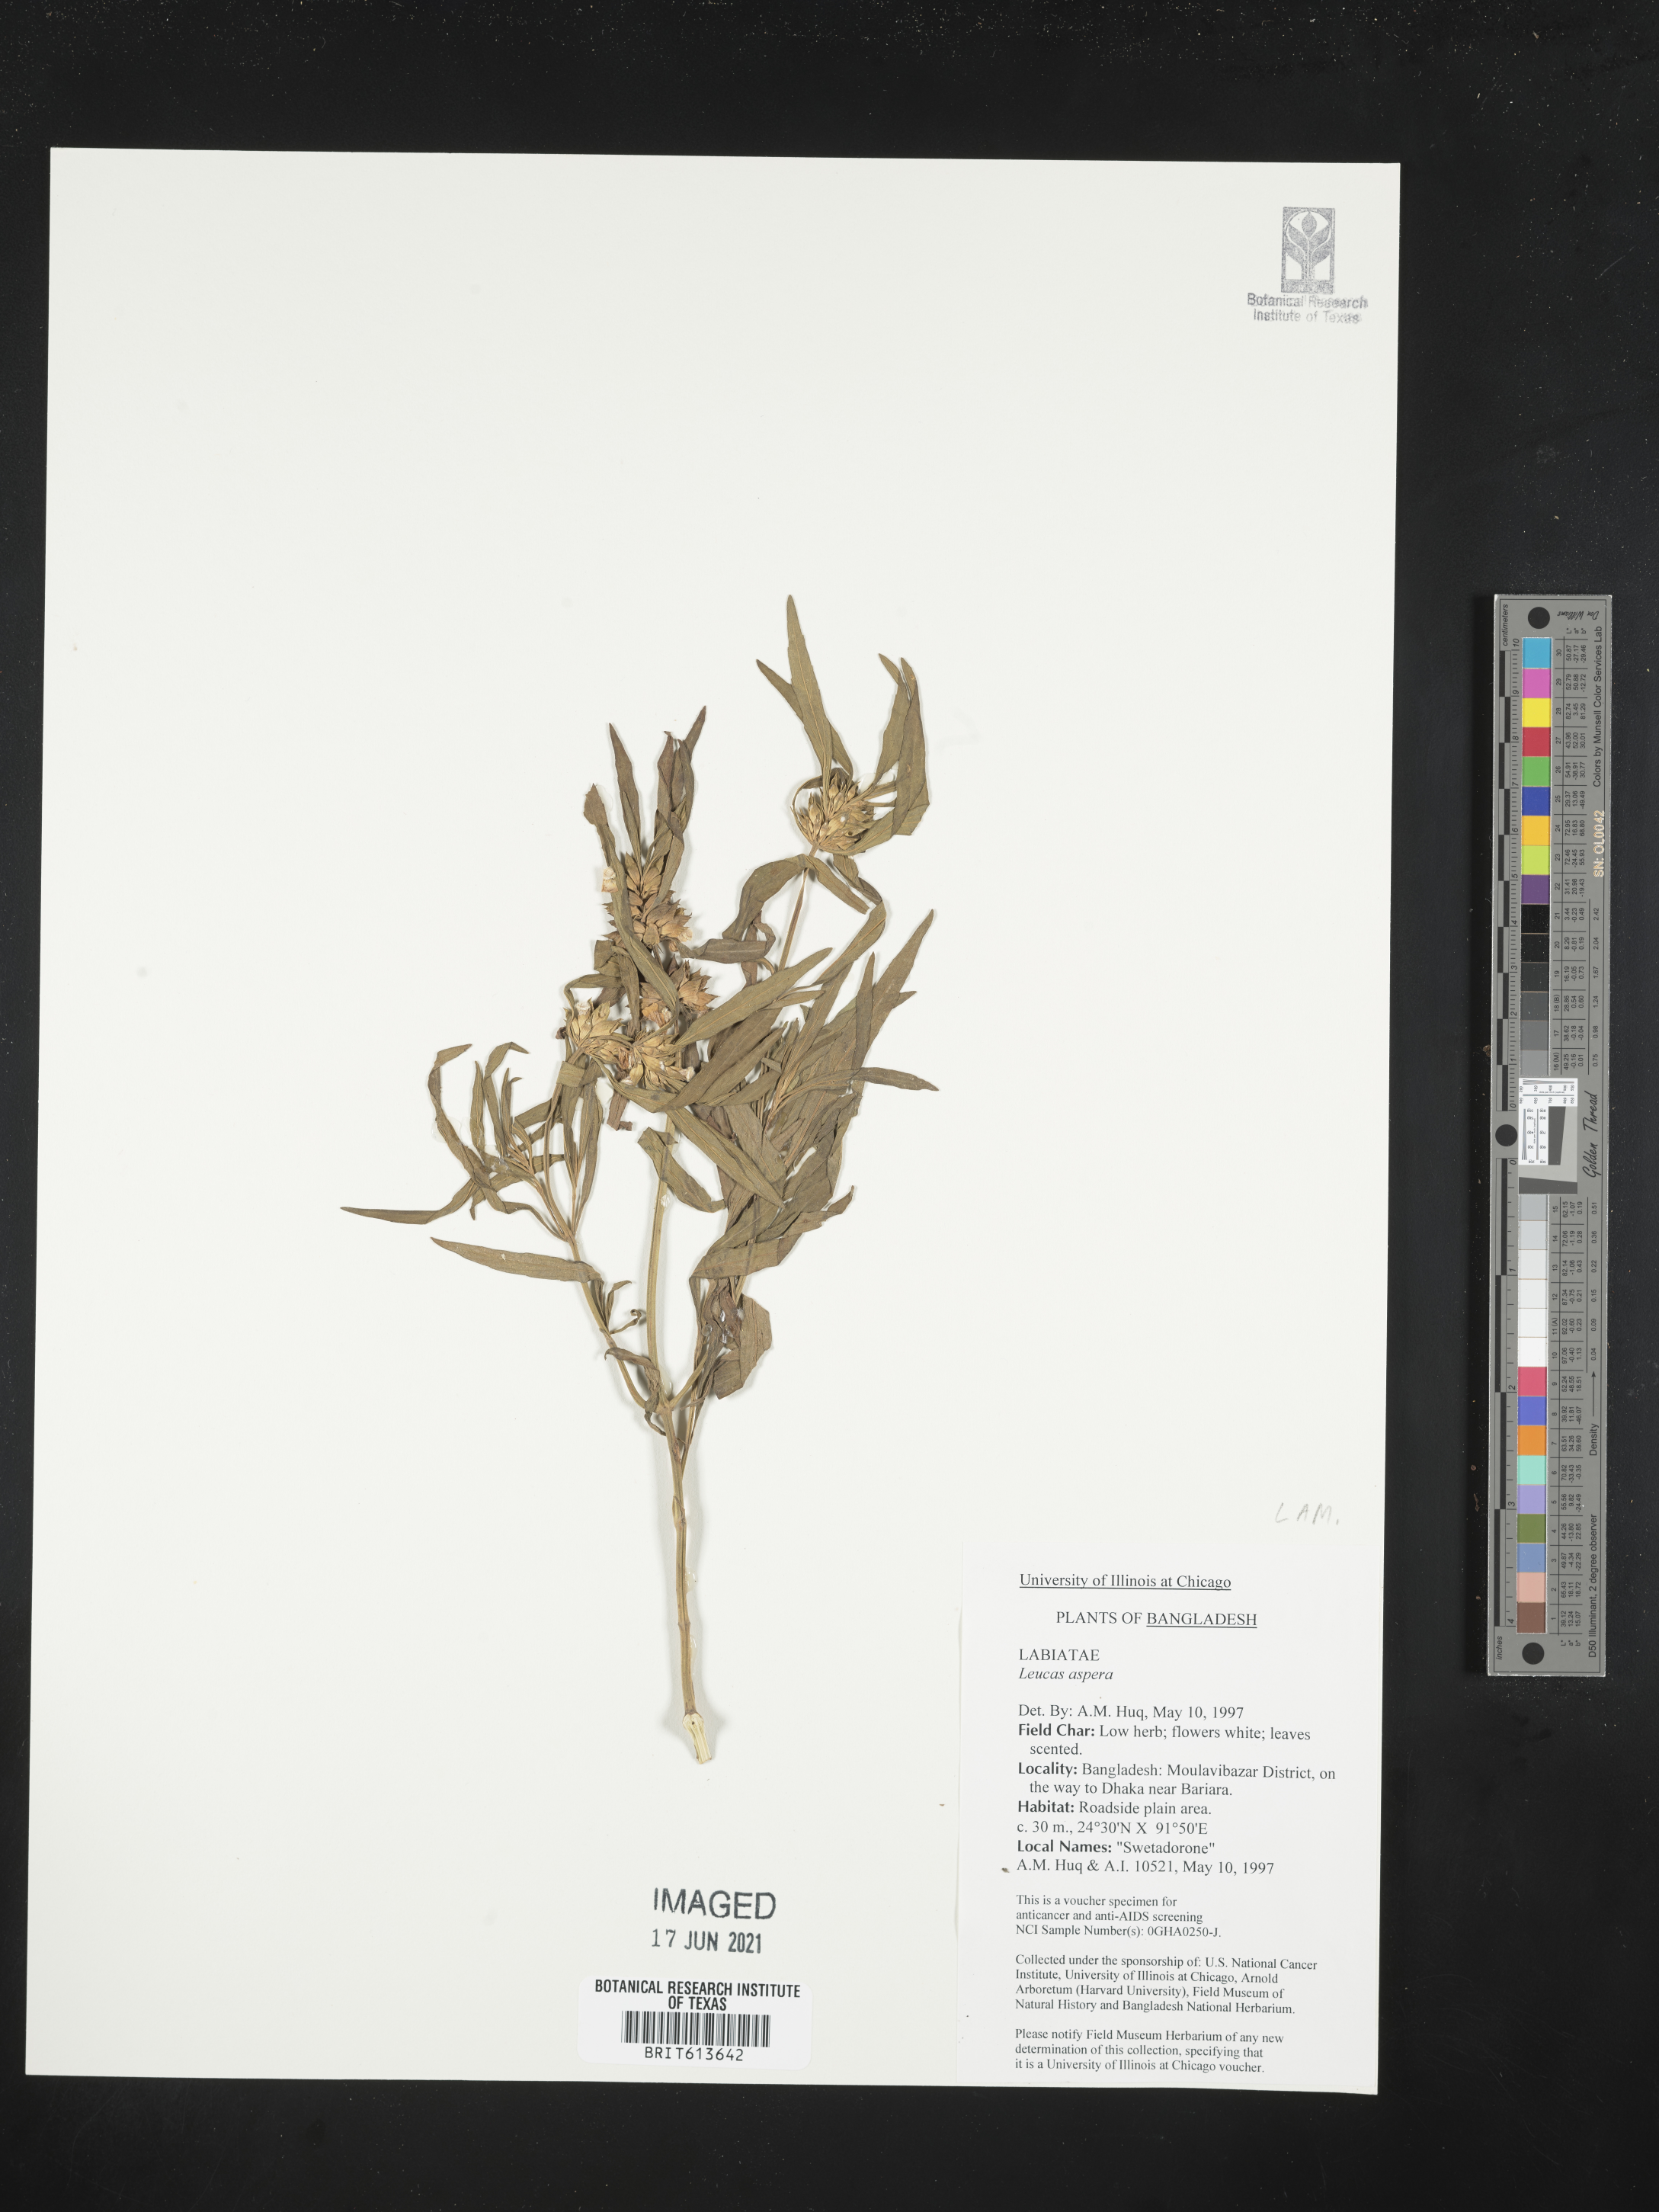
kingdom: Plantae
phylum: Tracheophyta
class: Magnoliopsida
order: Lamiales
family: Lamiaceae
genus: Leucas
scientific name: Leucas aspera
